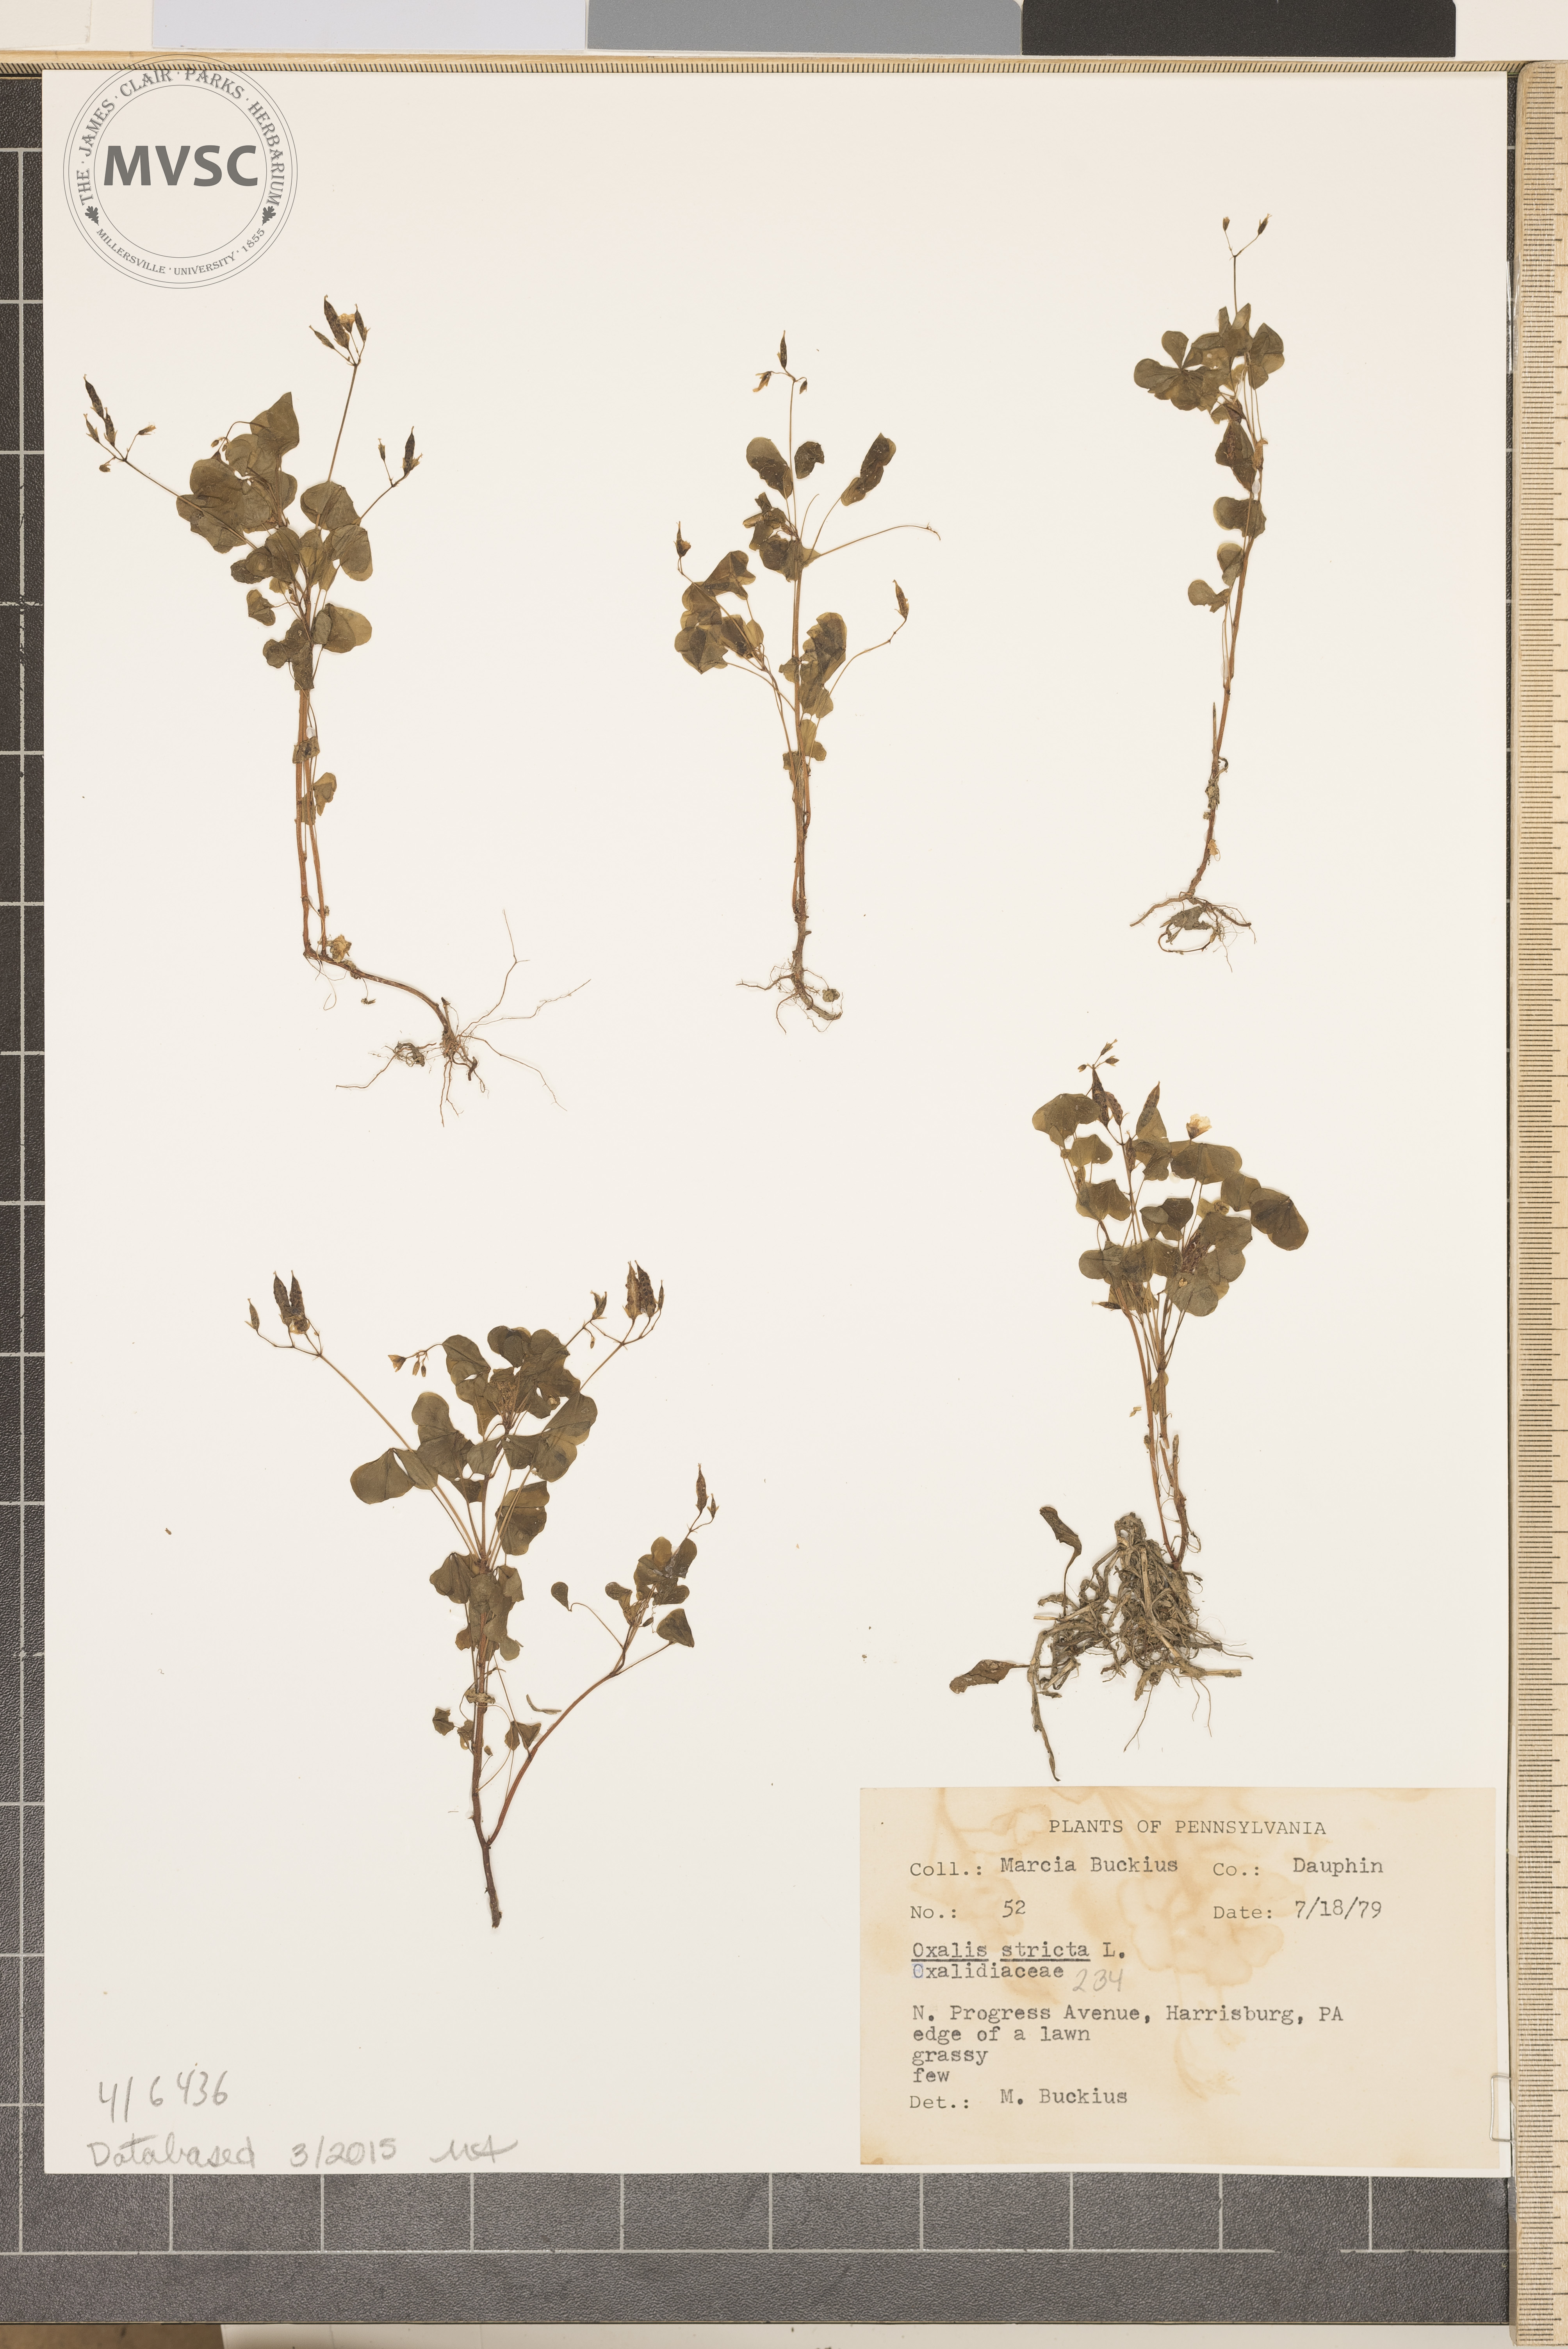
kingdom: Plantae
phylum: Tracheophyta
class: Magnoliopsida
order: Oxalidales
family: Oxalidaceae
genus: Oxalis
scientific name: Oxalis stricta
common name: Common yellow woodsorrel
